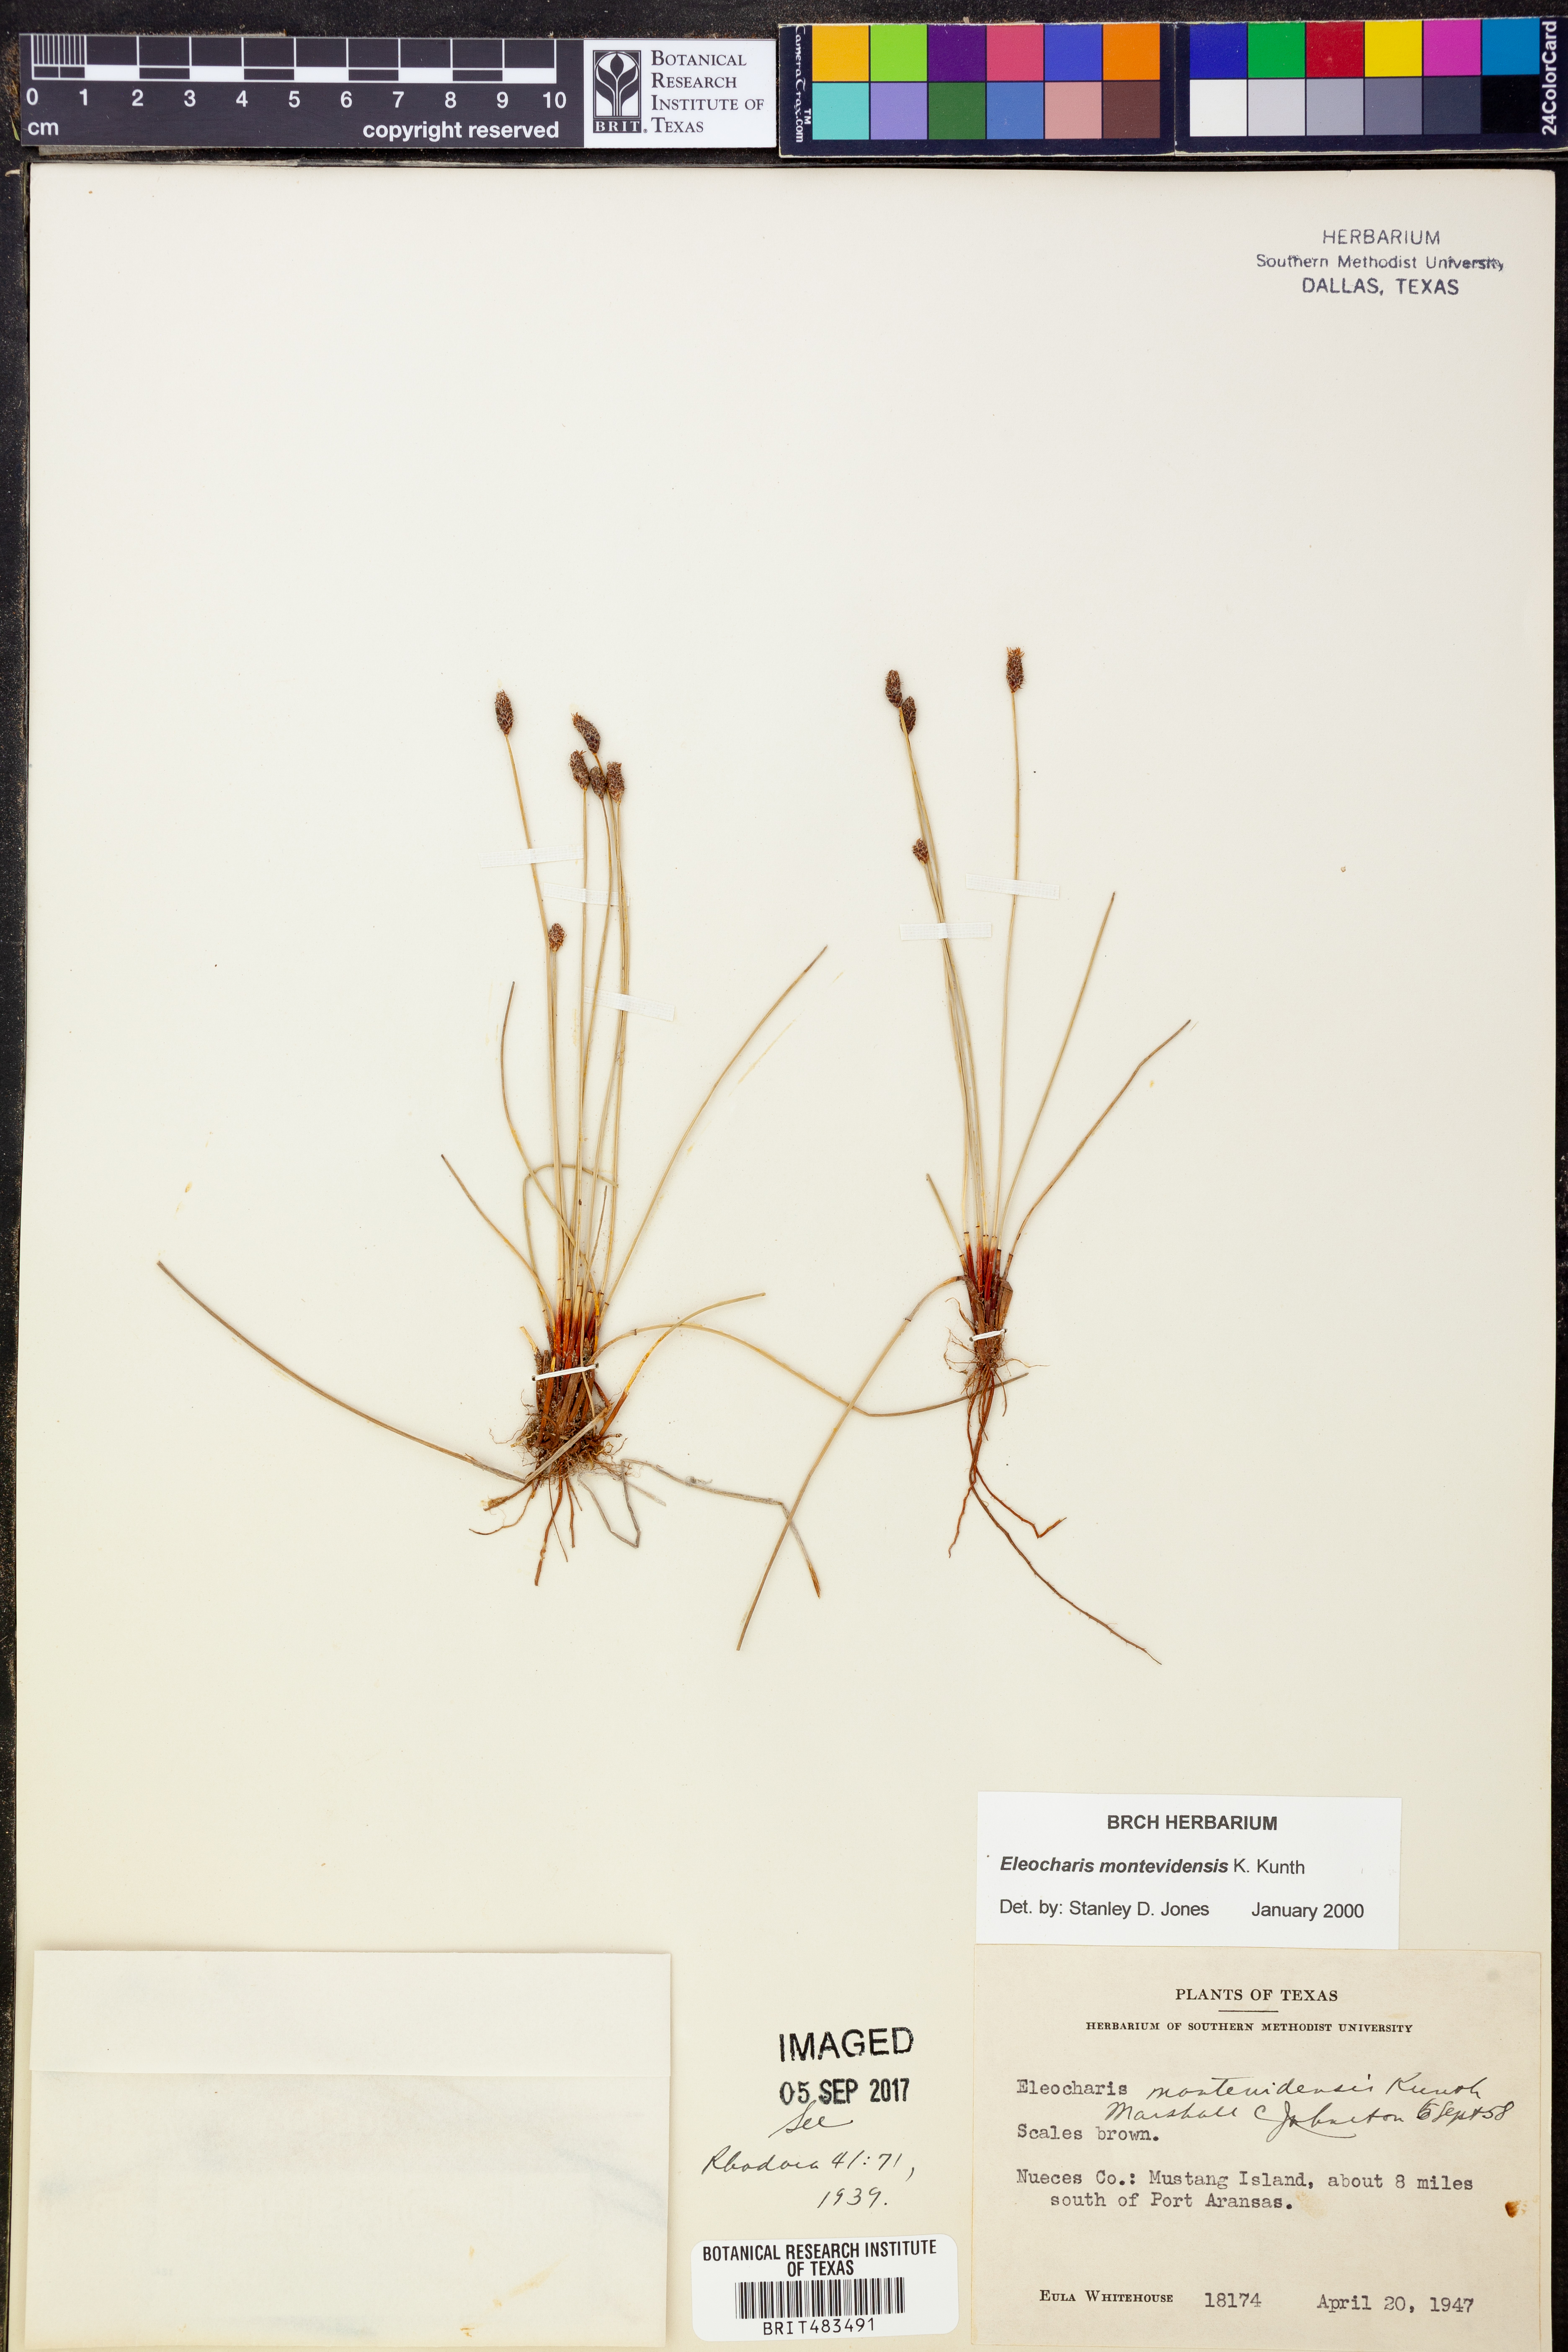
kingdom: Plantae
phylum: Tracheophyta
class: Liliopsida
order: Poales
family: Cyperaceae
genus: Eleocharis
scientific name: Eleocharis montevidensis
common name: Sand spike-rush
